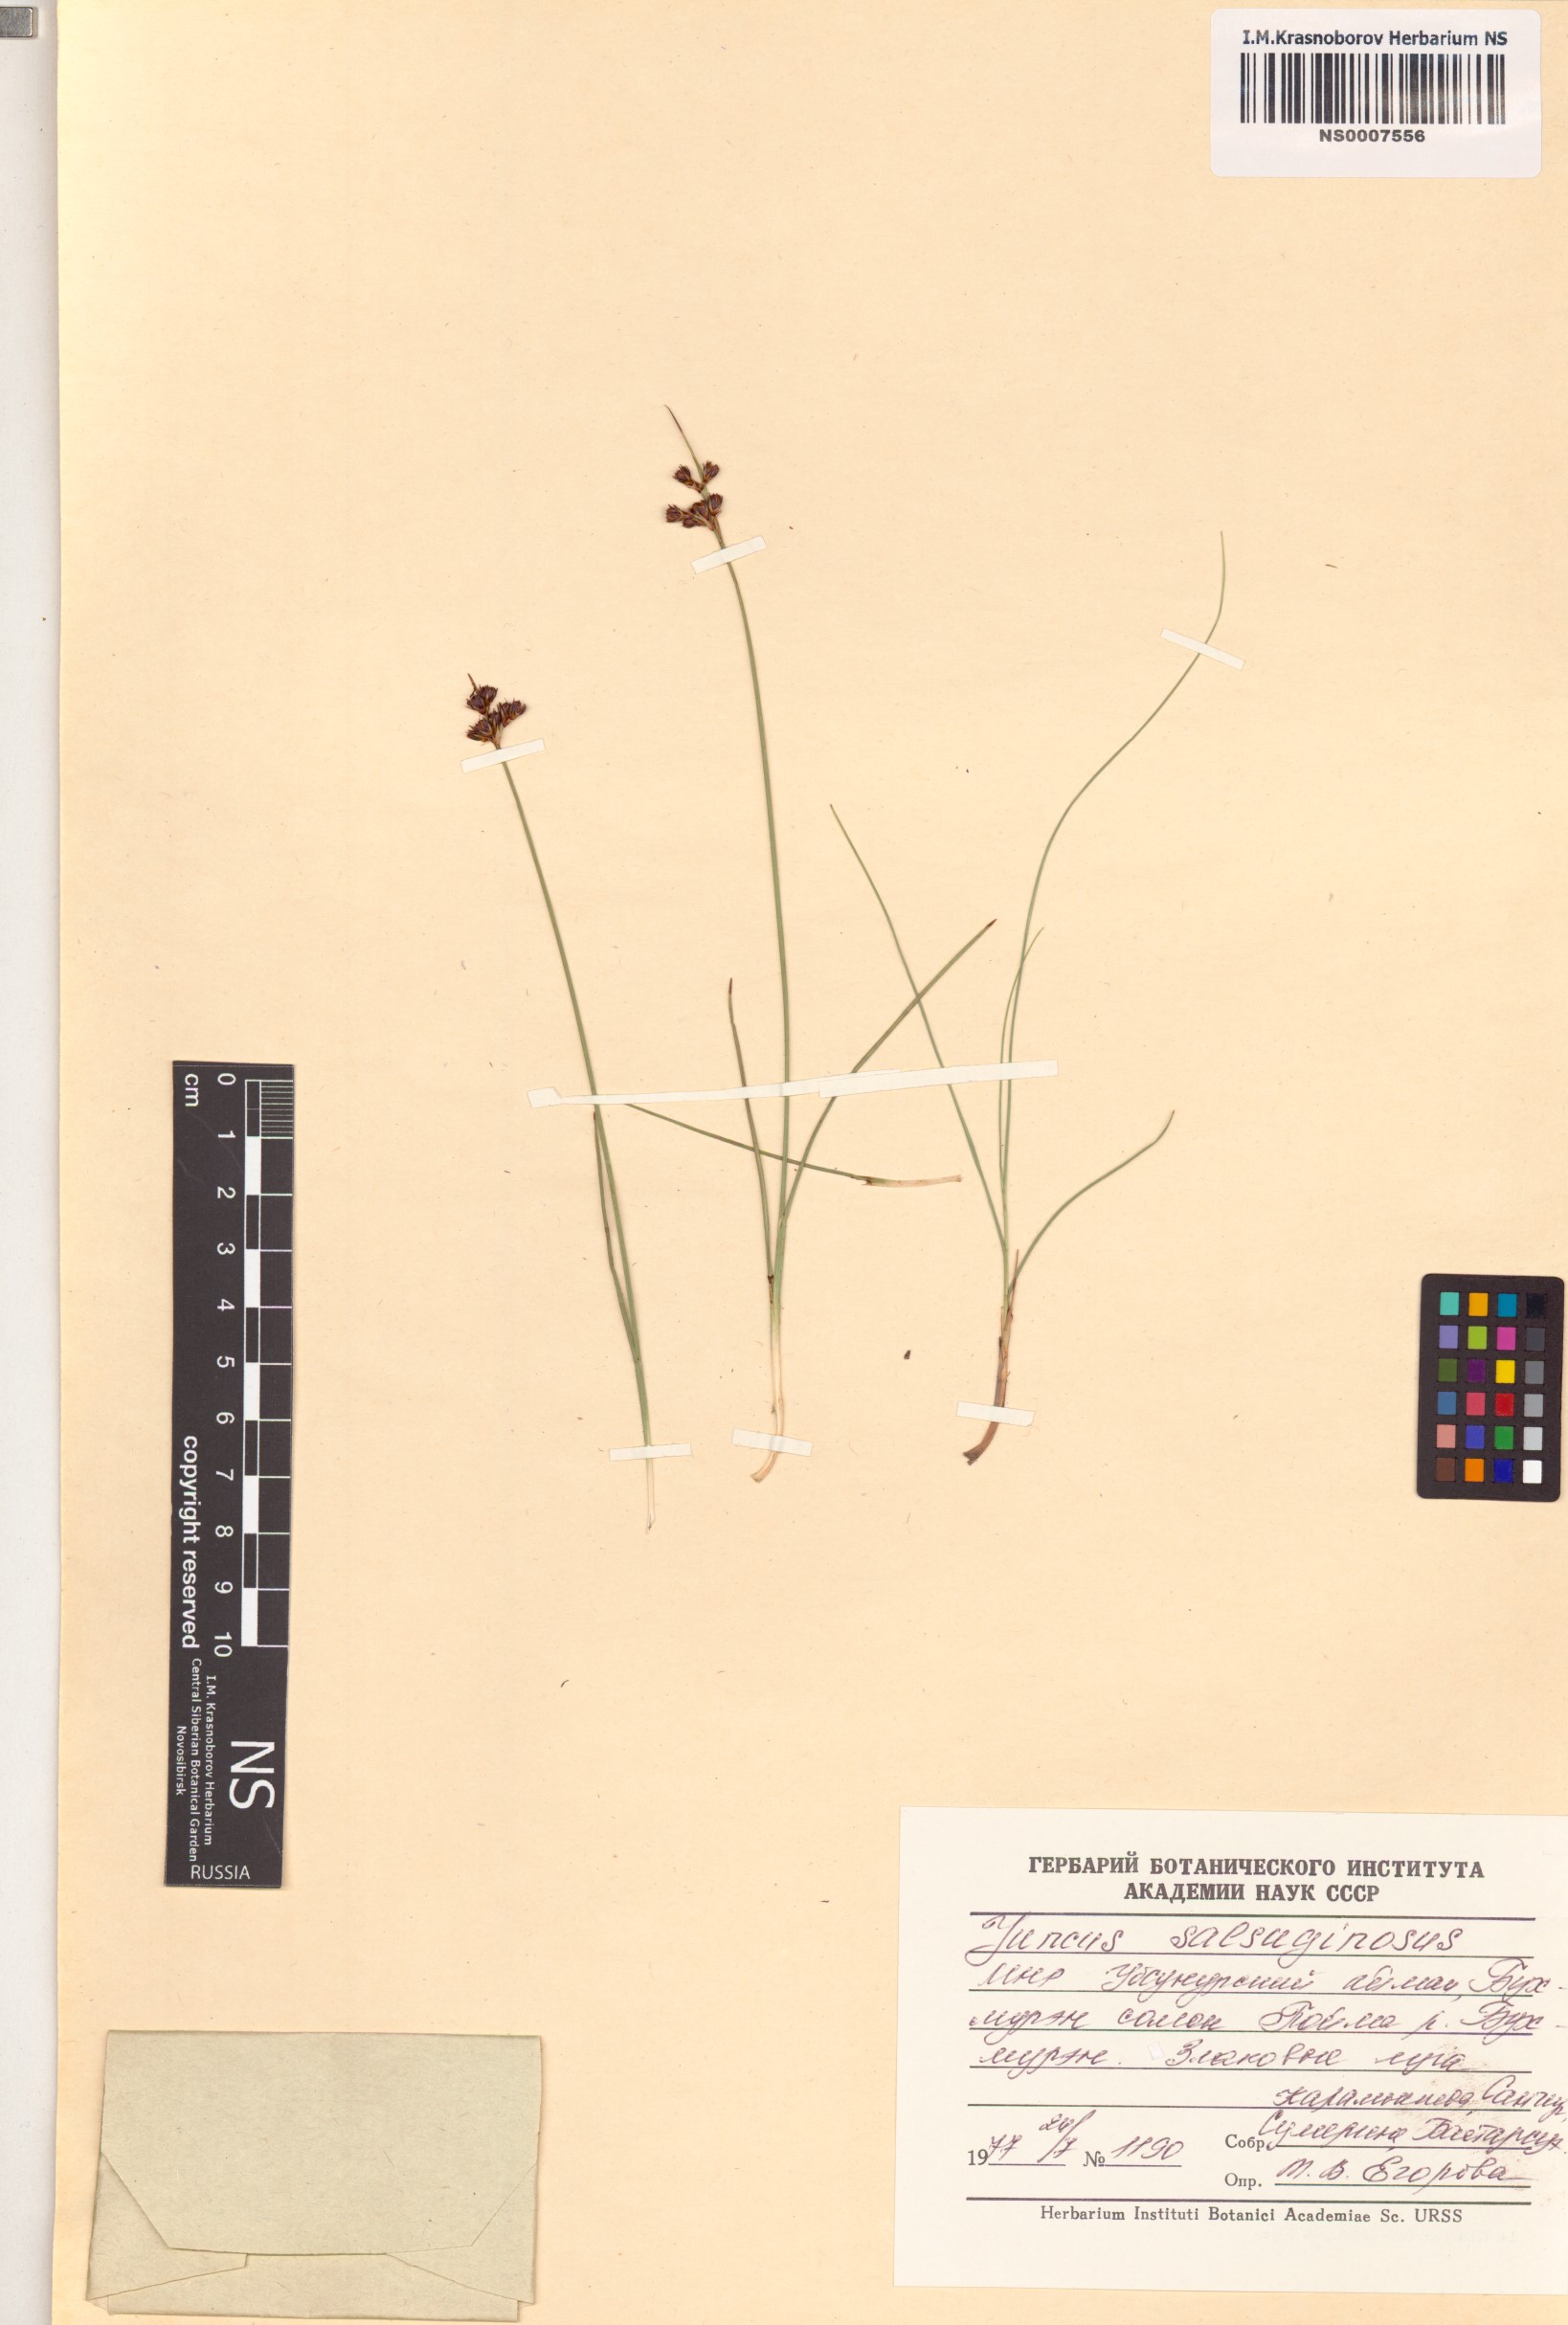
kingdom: Plantae
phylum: Tracheophyta
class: Liliopsida
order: Poales
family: Juncaceae
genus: Juncus
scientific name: Juncus salsuginosus
